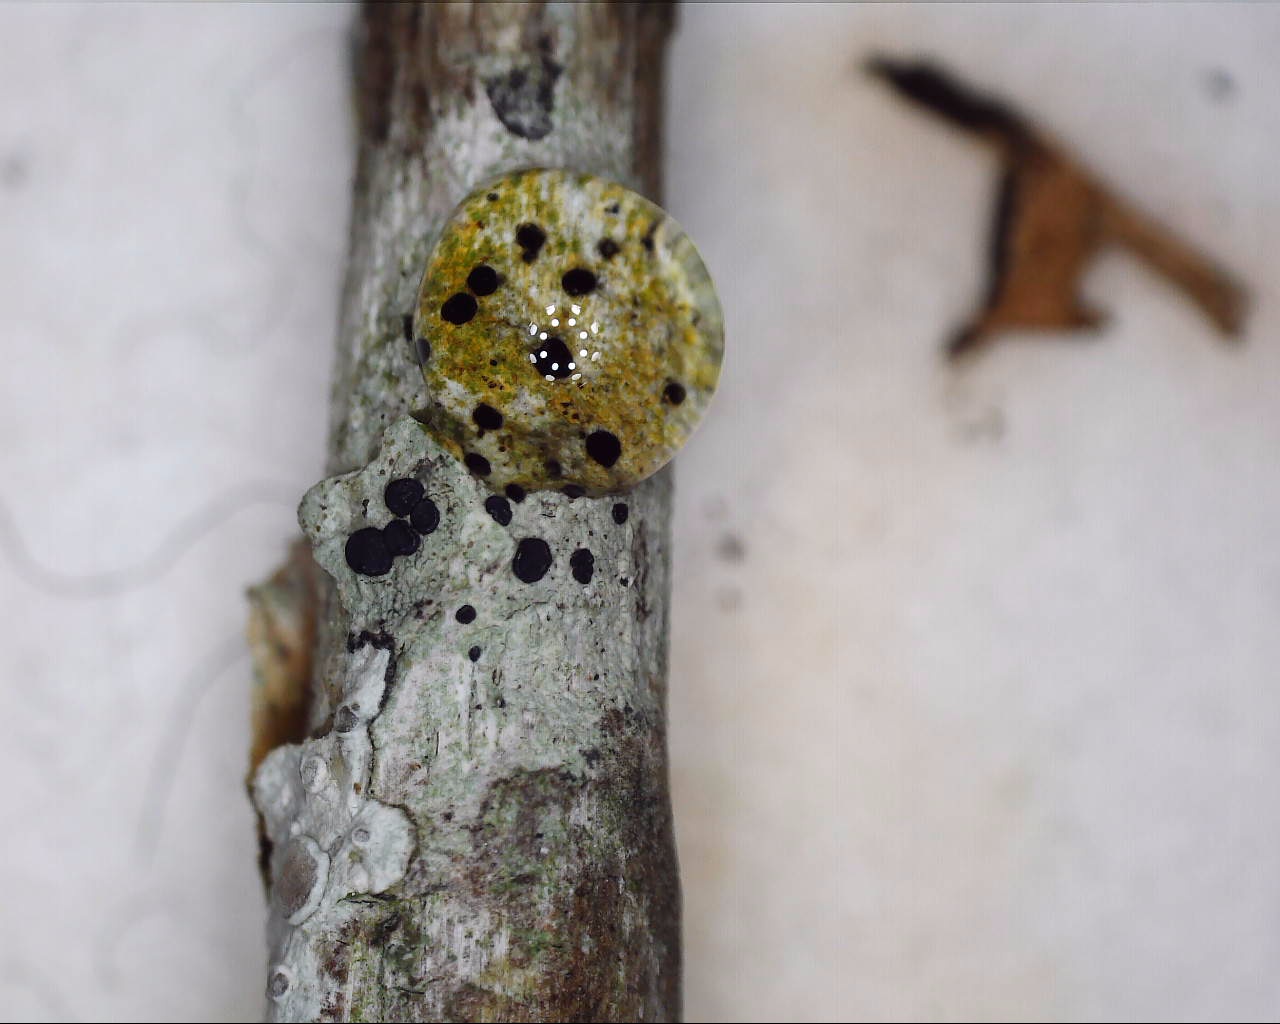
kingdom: Fungi
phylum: Ascomycota
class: Lecanoromycetes
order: Lecanorales
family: Lecanoraceae
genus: Lecidella
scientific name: Lecidella elaeochroma
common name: grågrøn skivelav
